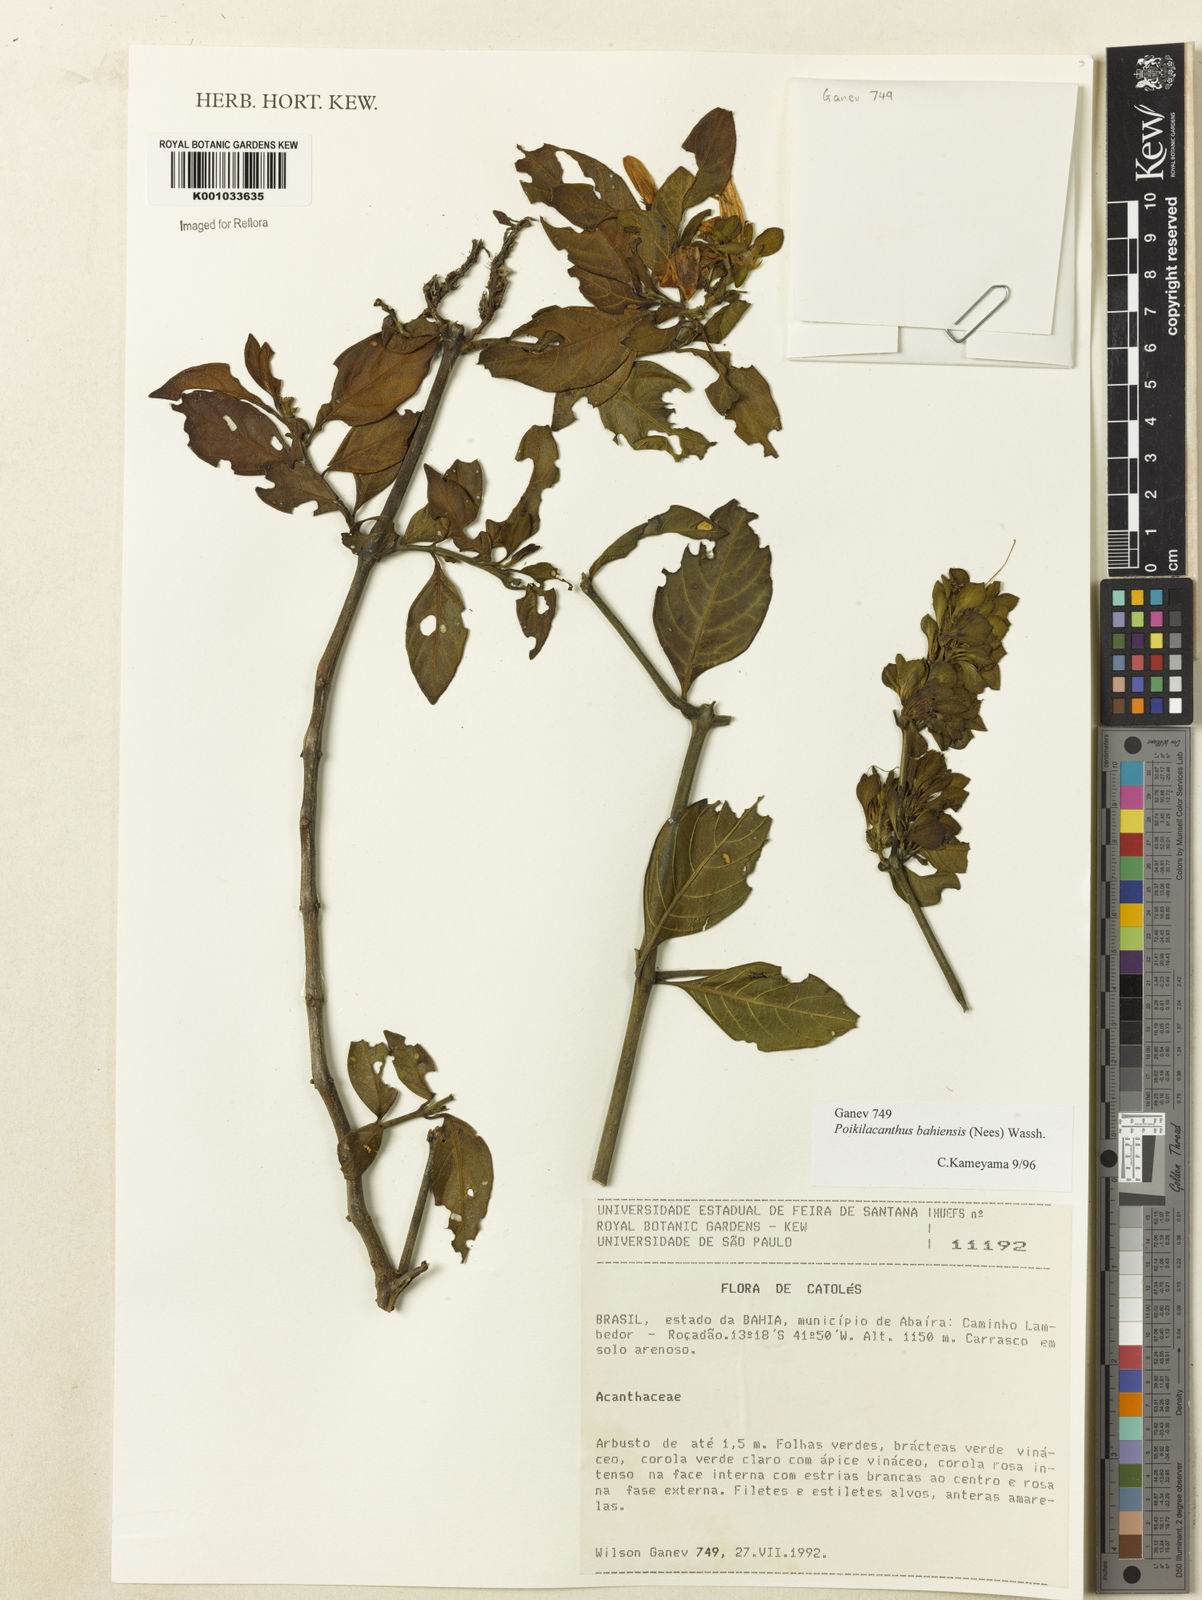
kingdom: Plantae
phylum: Tracheophyta
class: Magnoliopsida
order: Lamiales
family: Acanthaceae
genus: Poikilacanthus
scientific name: Poikilacanthus bahiensis
